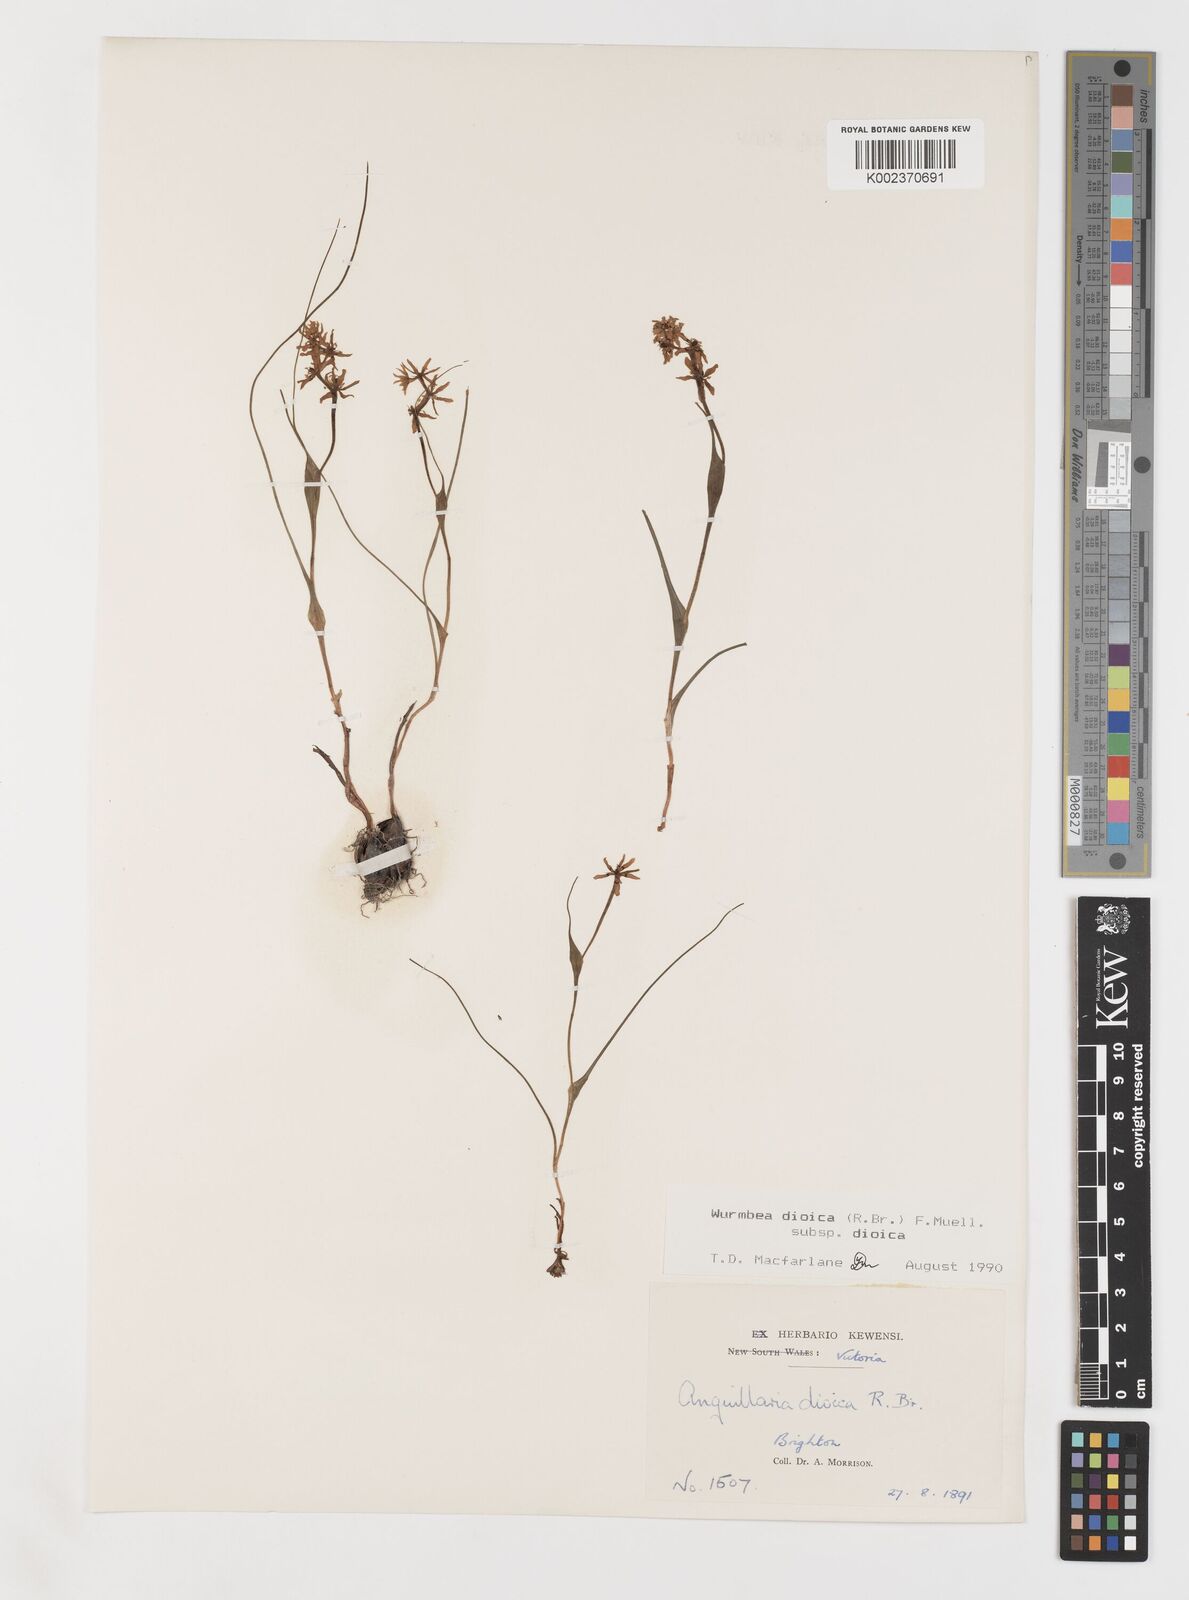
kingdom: Plantae
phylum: Tracheophyta
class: Liliopsida
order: Liliales
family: Colchicaceae
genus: Wurmbea
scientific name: Wurmbea dioica
